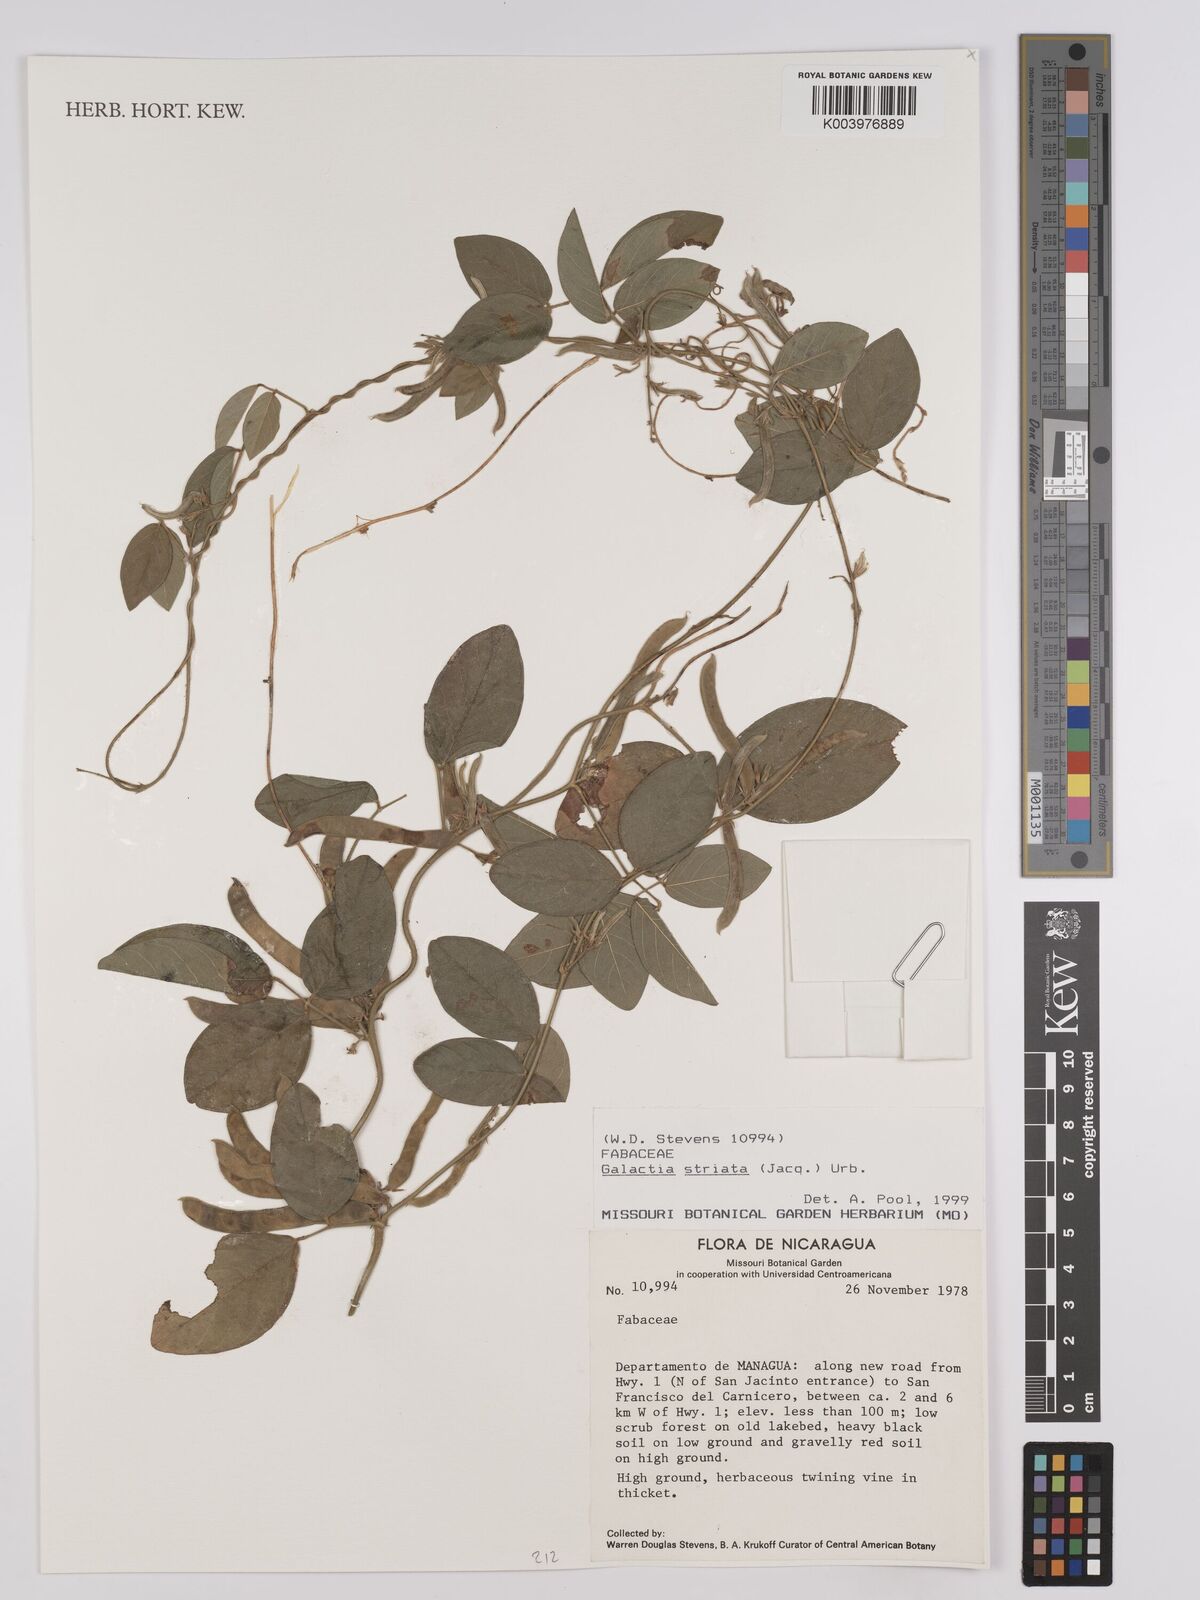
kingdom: Plantae
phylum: Tracheophyta
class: Magnoliopsida
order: Fabales
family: Fabaceae
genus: Galactia
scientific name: Galactia striata
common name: Florida hammock milkpea
